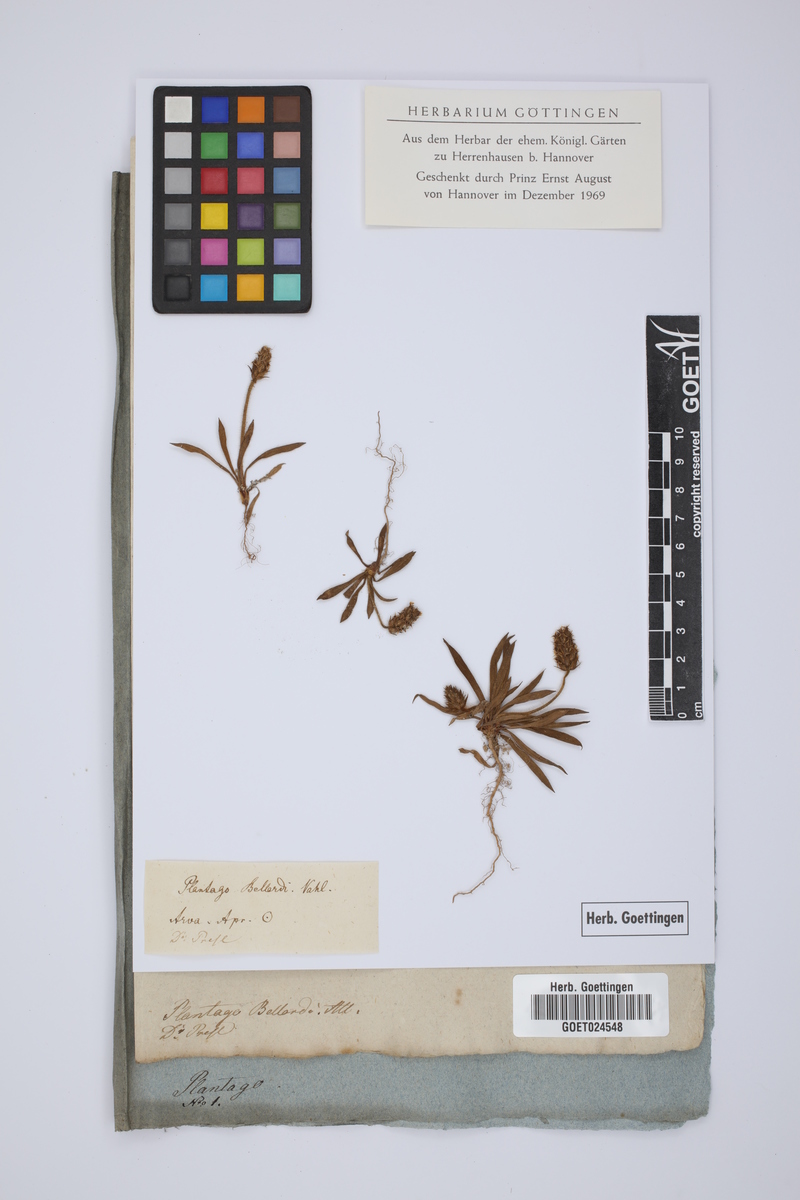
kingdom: Plantae
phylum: Tracheophyta
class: Magnoliopsida
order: Lamiales
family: Plantaginaceae
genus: Plantago
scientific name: Plantago bellardii
